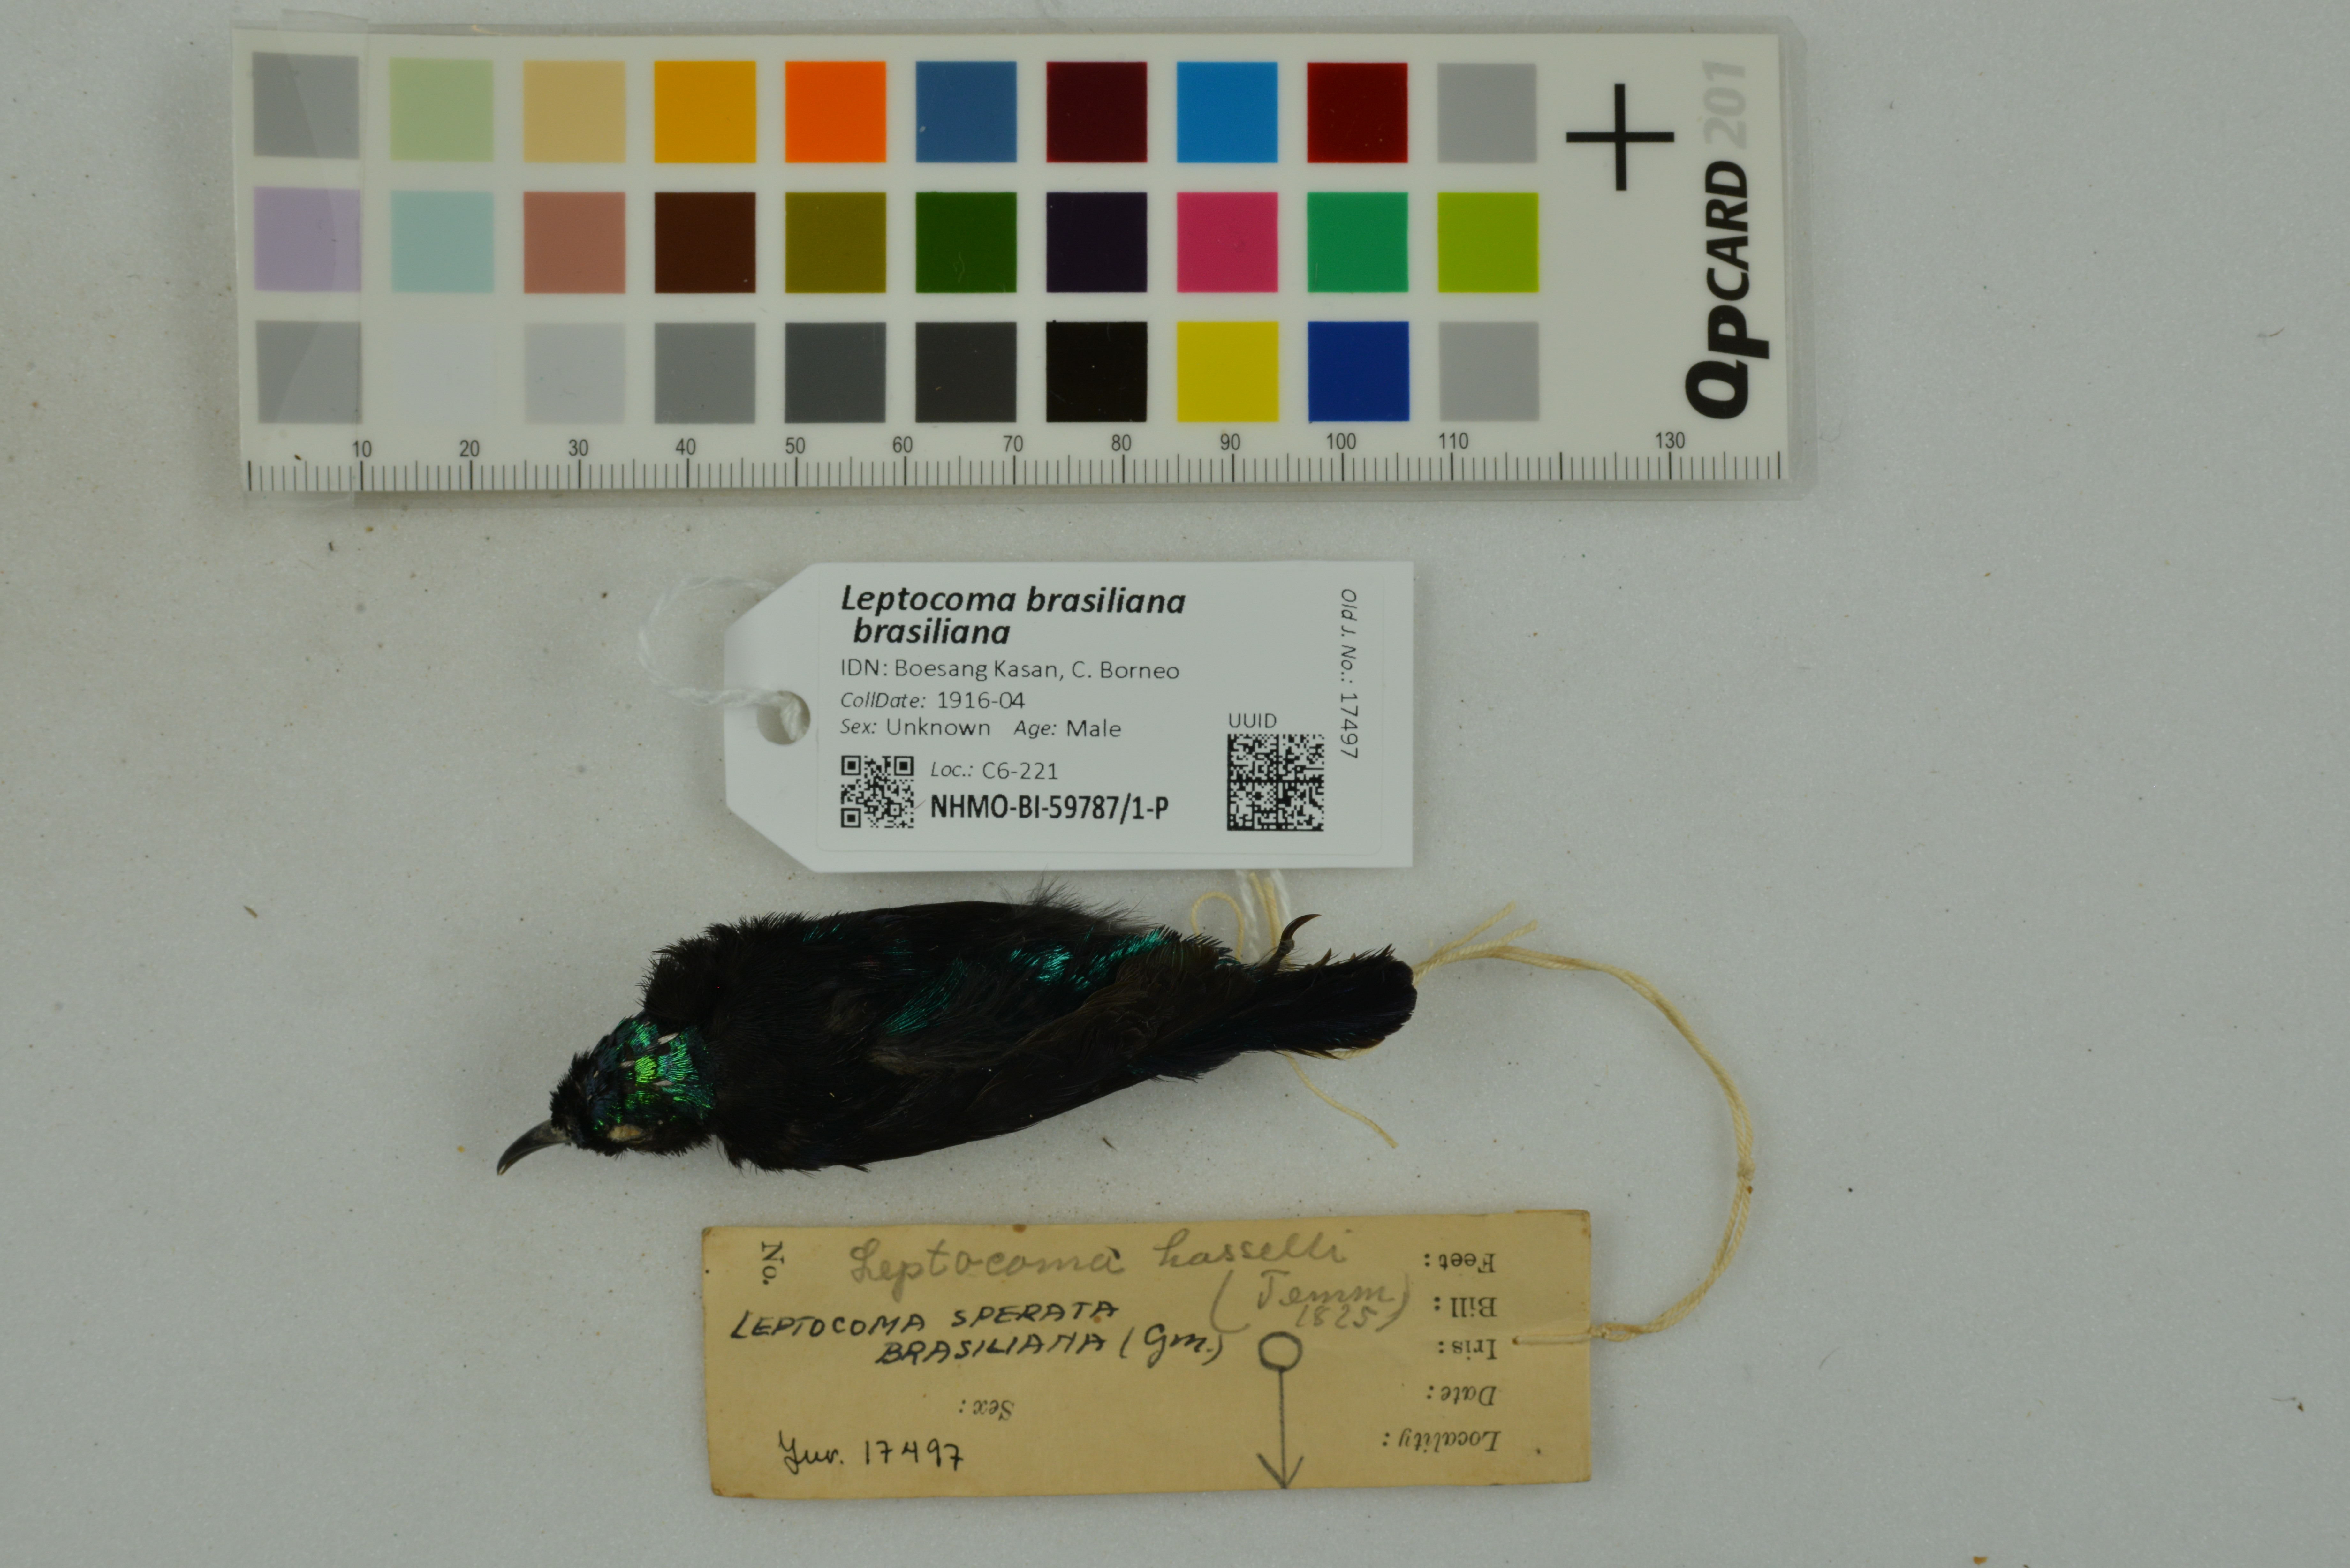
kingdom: Animalia
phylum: Chordata
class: Aves
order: Passeriformes
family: Nectariniidae
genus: Leptocoma
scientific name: Leptocoma brasiliana
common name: Van hasselt's sunbird
